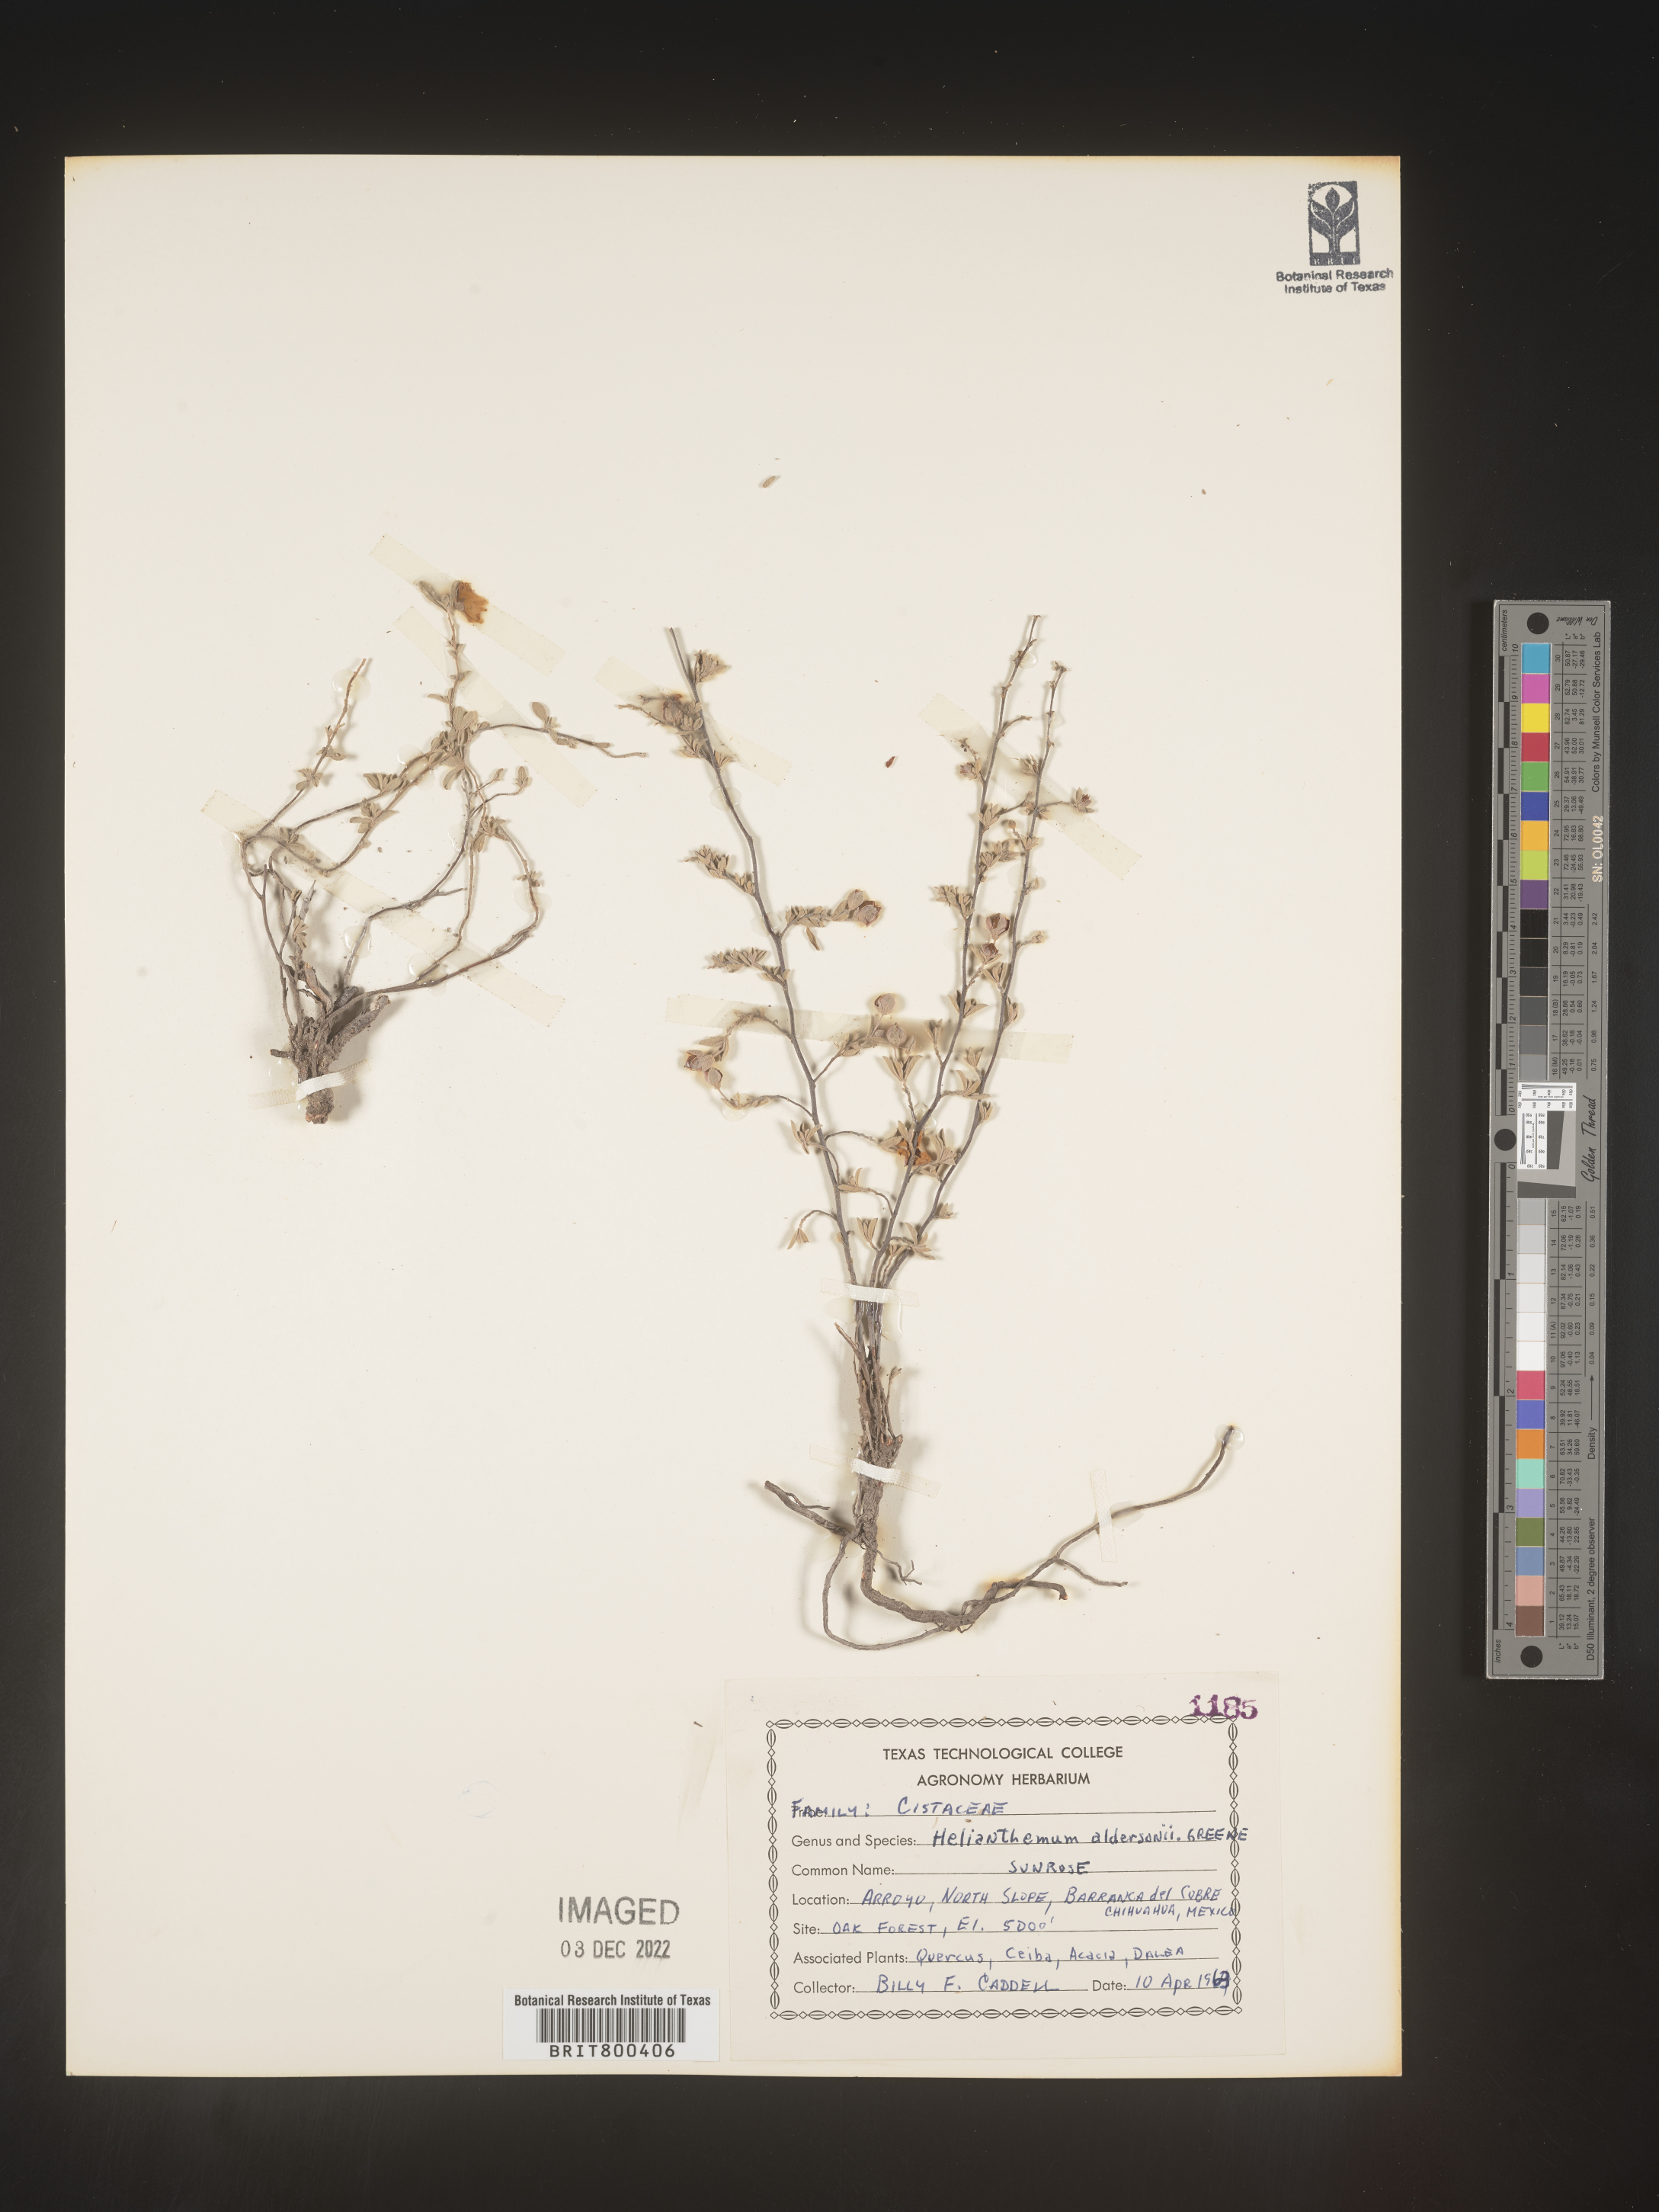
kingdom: Plantae
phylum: Tracheophyta
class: Magnoliopsida
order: Malvales
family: Cistaceae
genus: Helianthemum
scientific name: Helianthemum
